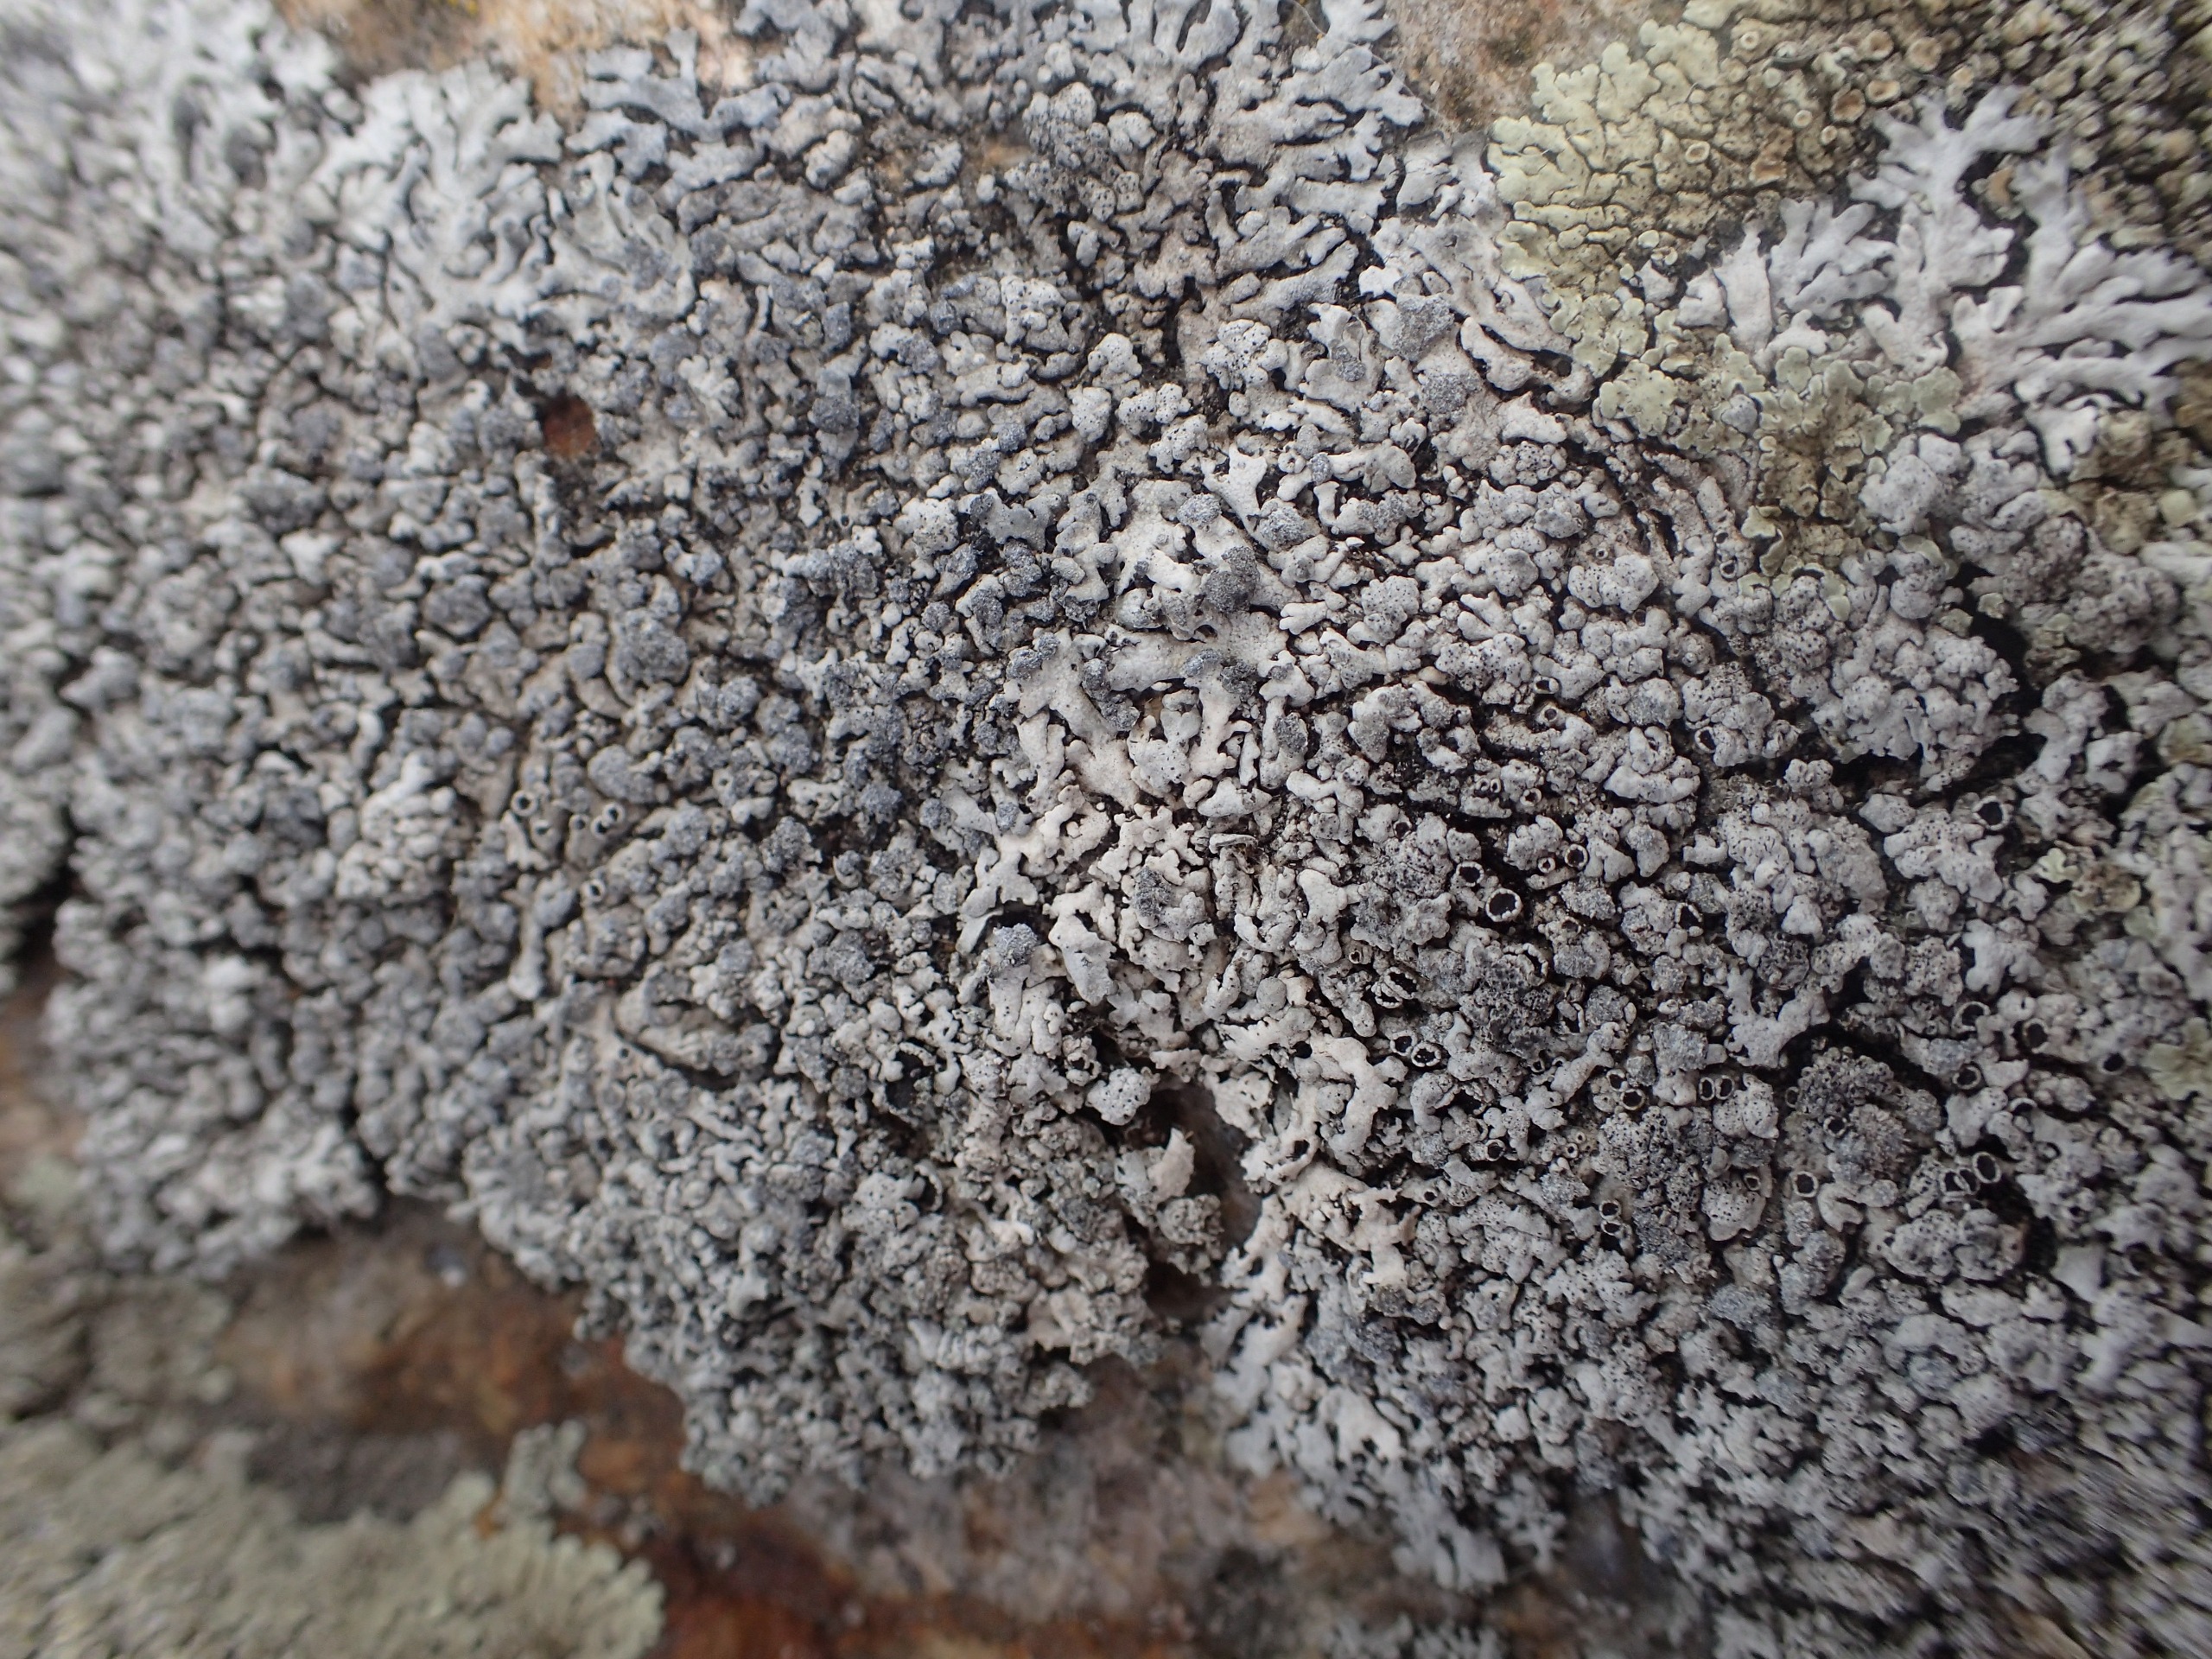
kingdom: Fungi
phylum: Ascomycota
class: Lecanoromycetes
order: Caliciales
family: Physciaceae
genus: Physcia
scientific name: Physcia caesia
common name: Blågrå rosetlav
